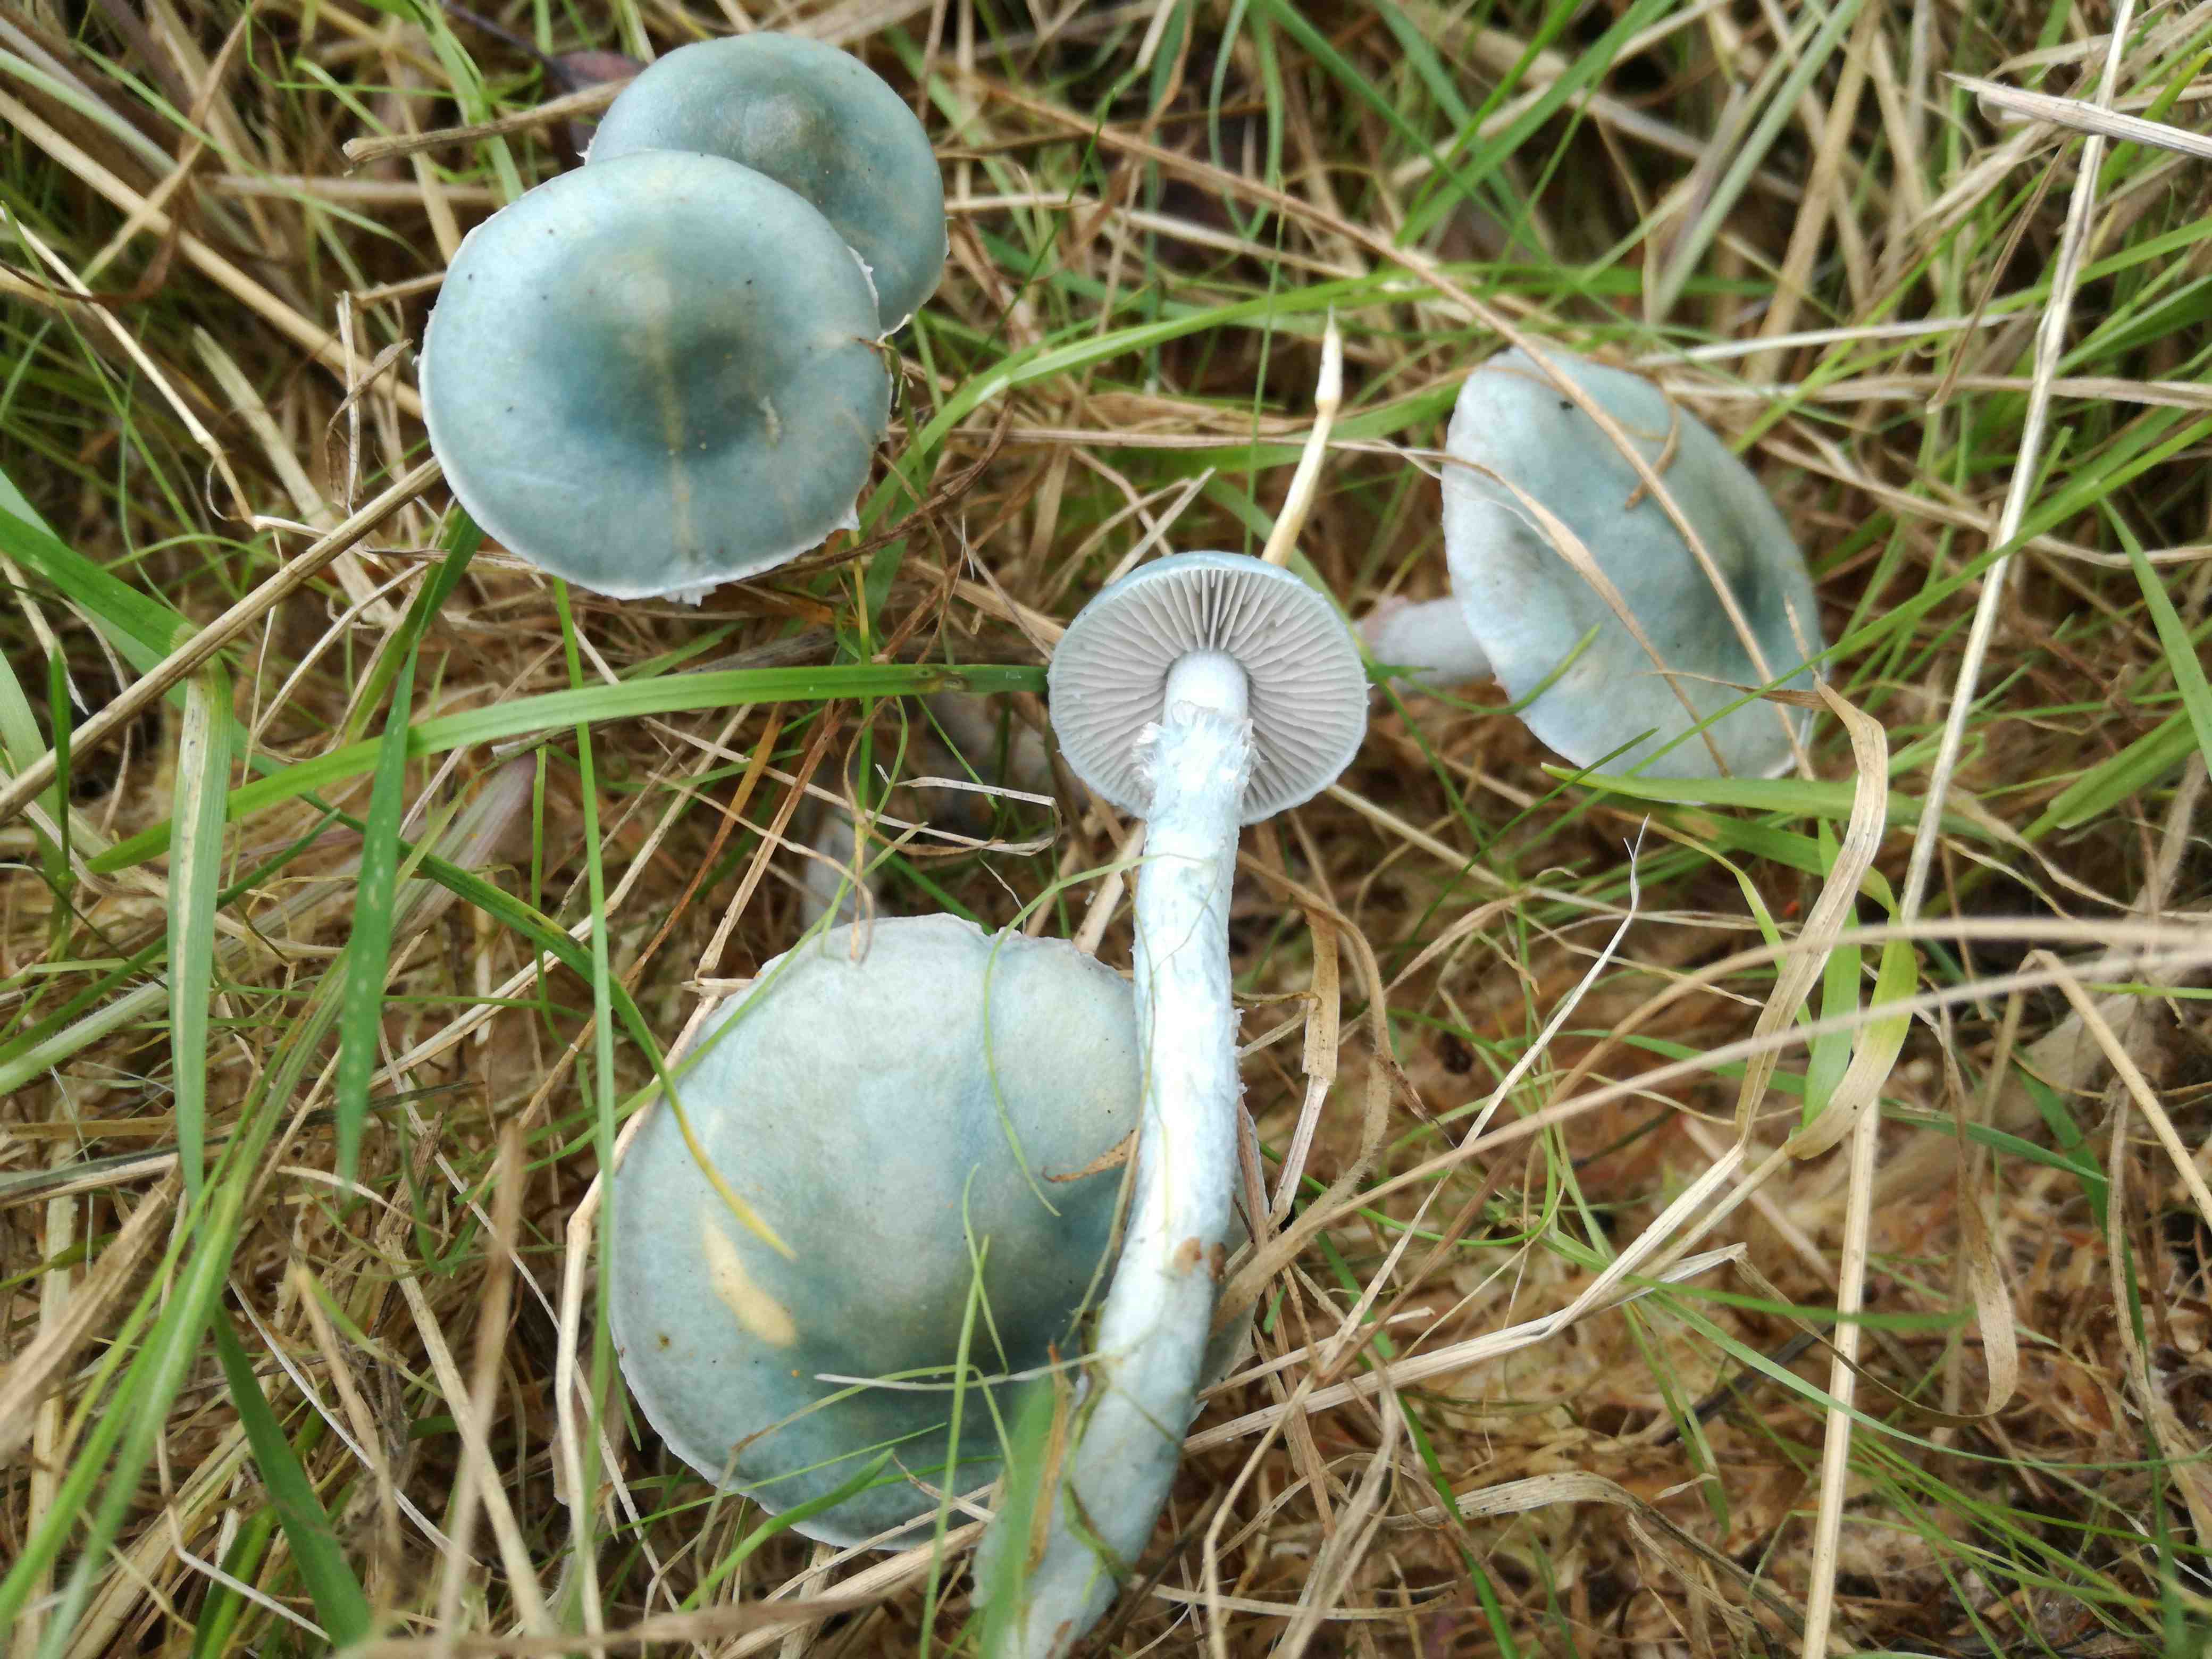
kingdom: Fungi
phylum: Basidiomycota
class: Agaricomycetes
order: Agaricales
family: Strophariaceae
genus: Stropharia
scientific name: Stropharia cyanea
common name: blågrøn bredblad
